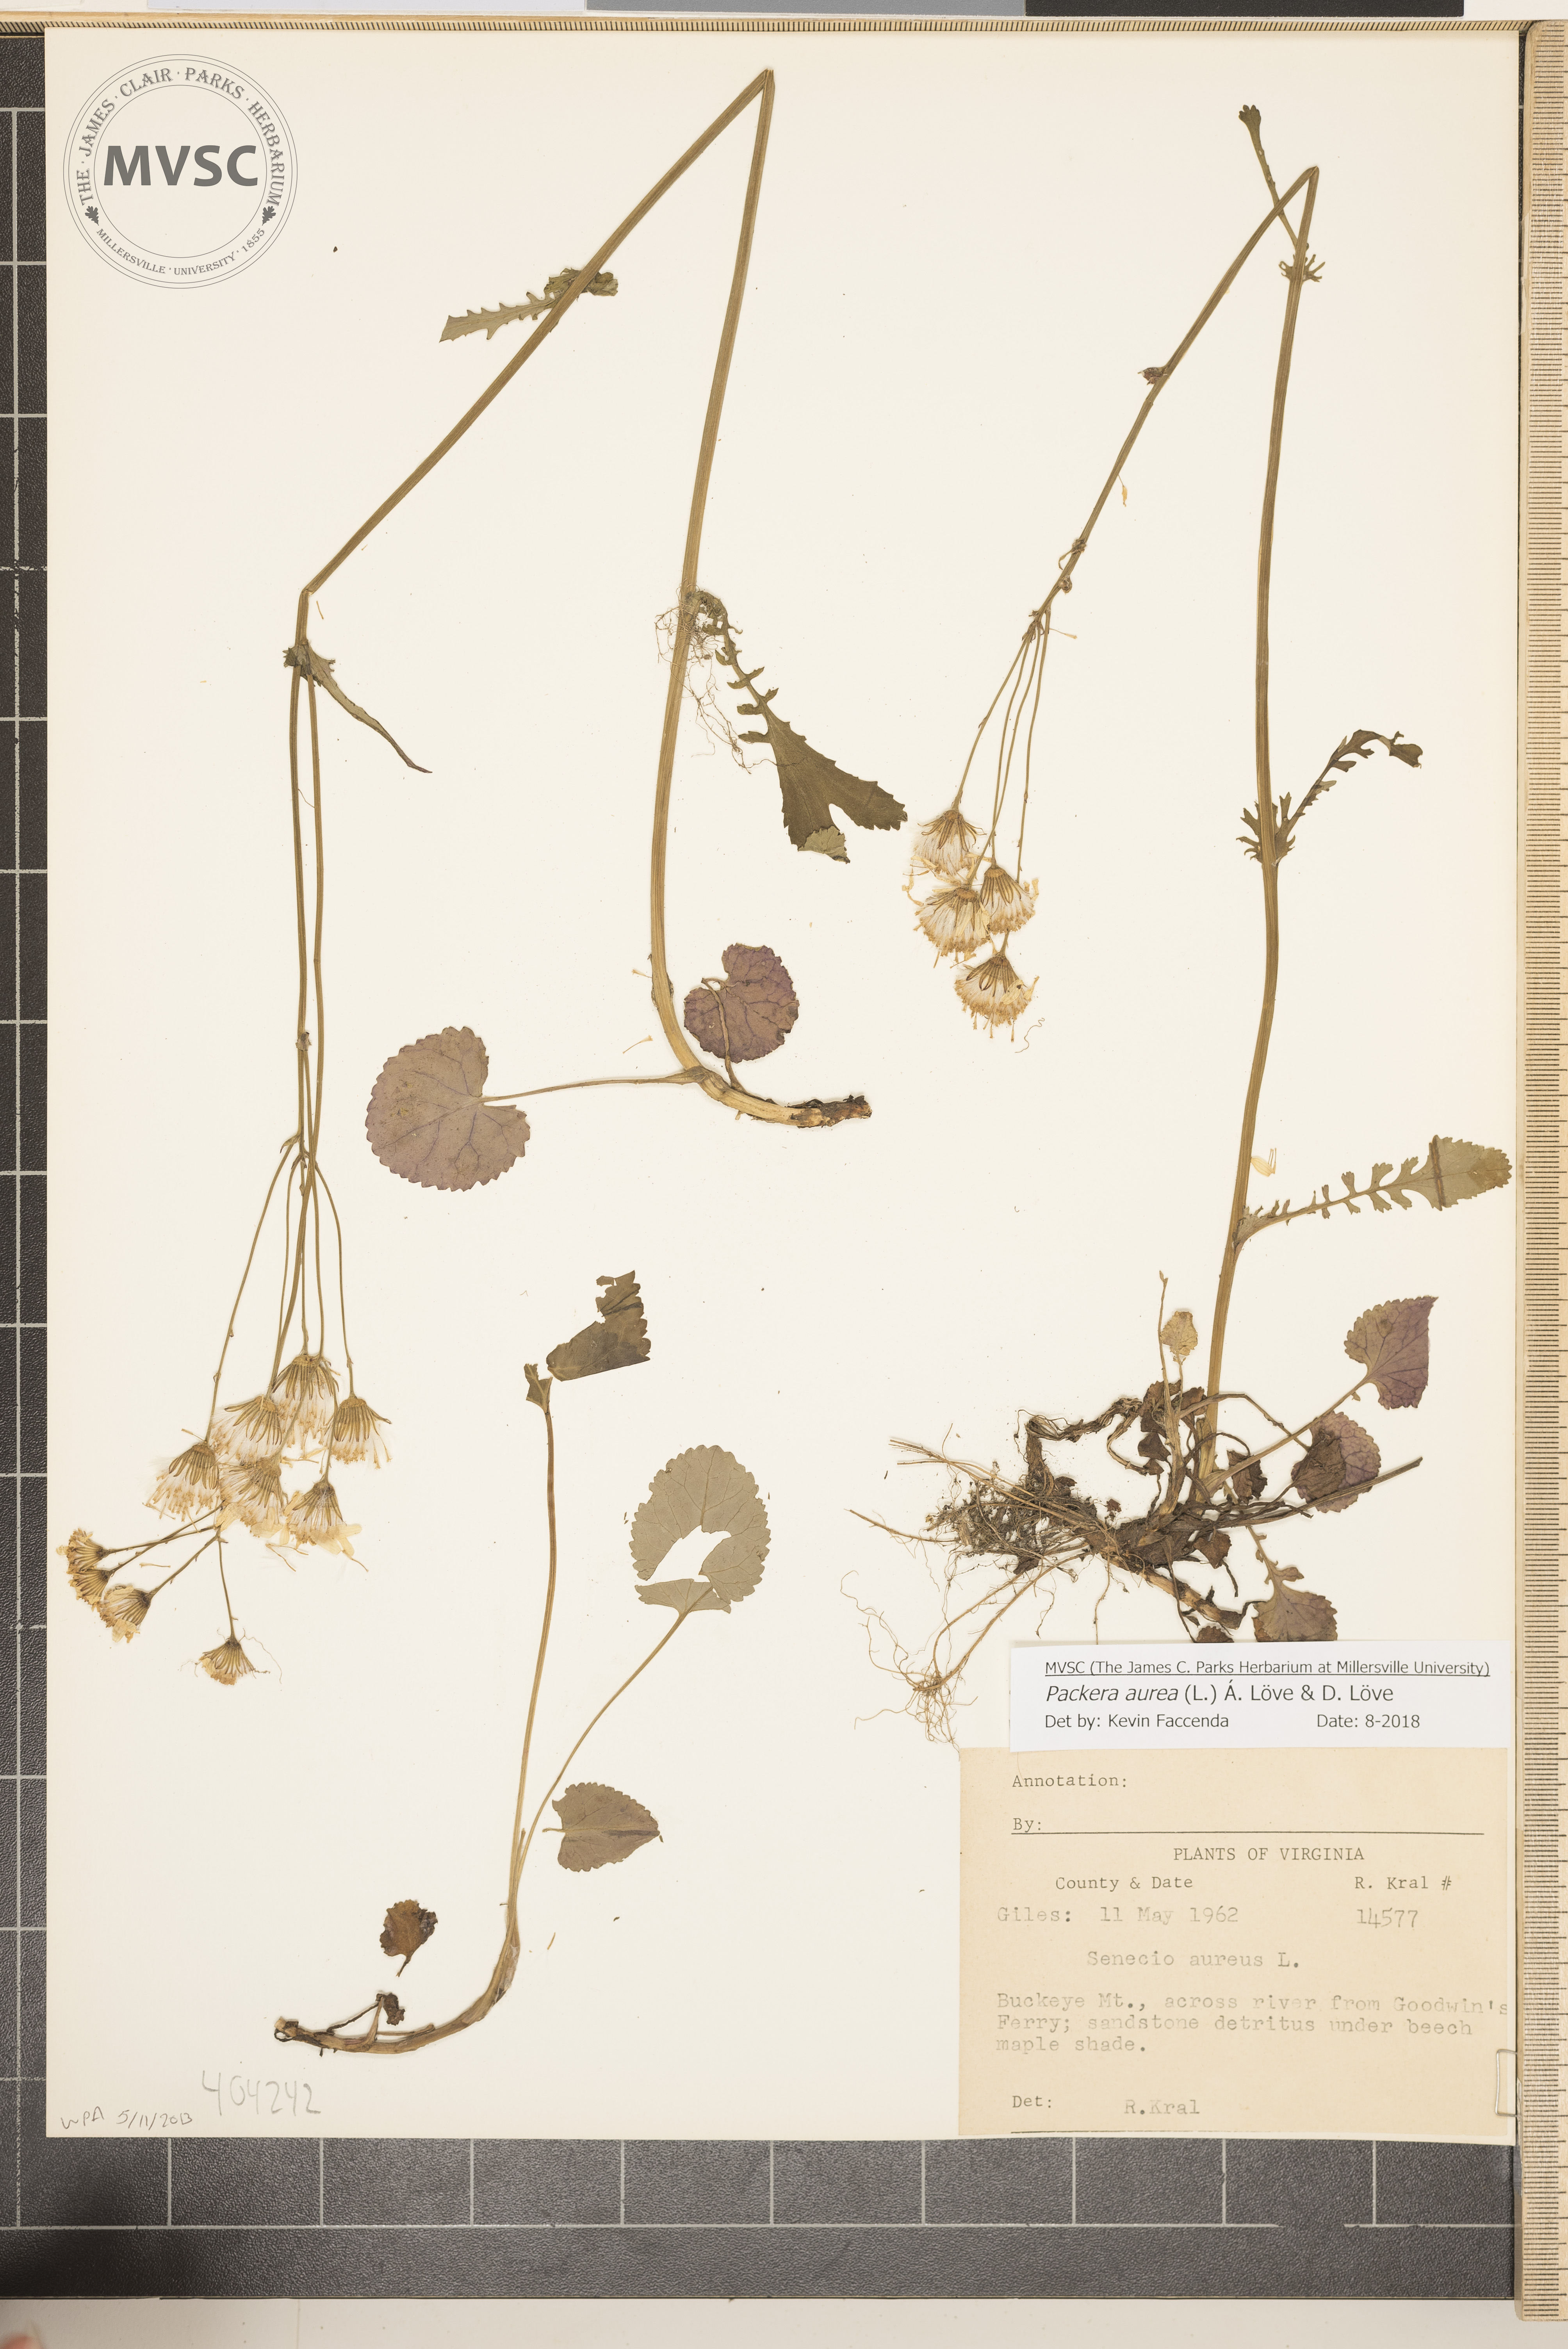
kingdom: Plantae
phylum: Tracheophyta
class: Magnoliopsida
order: Asterales
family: Asteraceae
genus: Packera
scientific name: Packera aurea
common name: Golden groundsel
